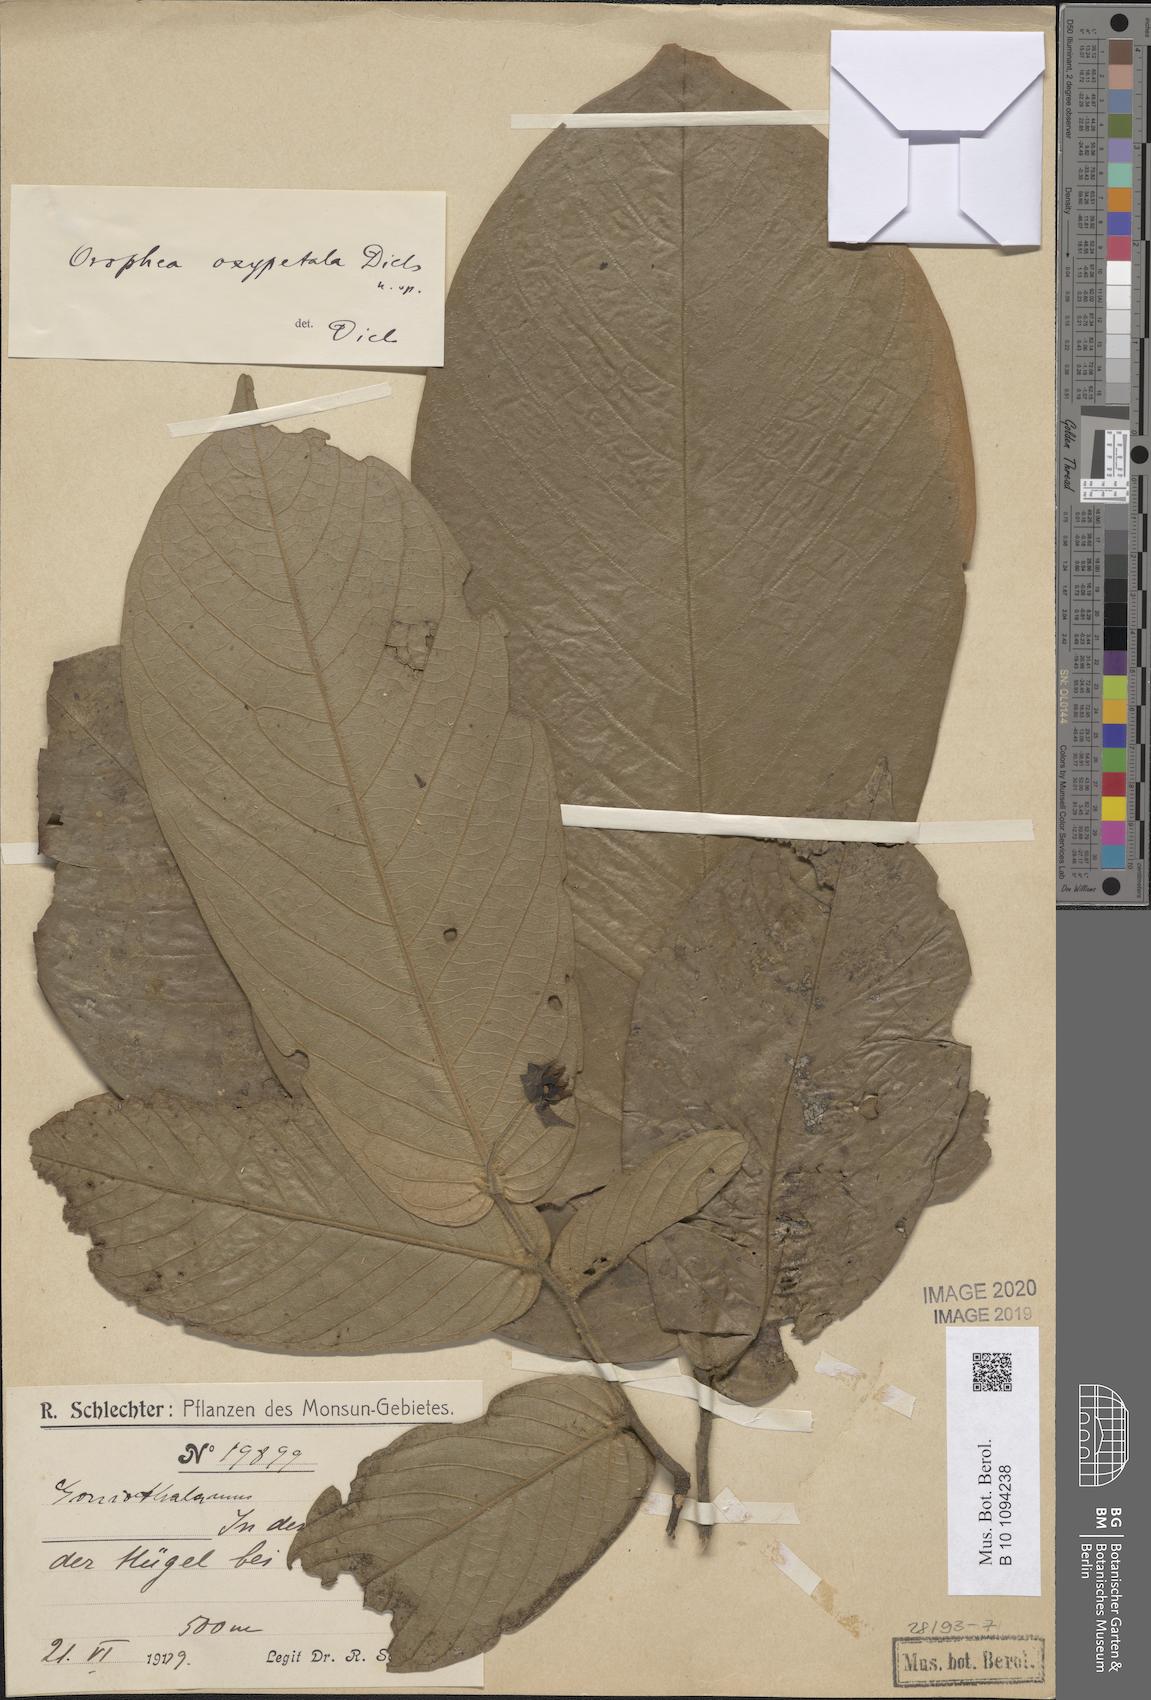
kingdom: Plantae
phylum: Tracheophyta
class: Magnoliopsida
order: Magnoliales
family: Annonaceae
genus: Orophea
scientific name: Orophea
